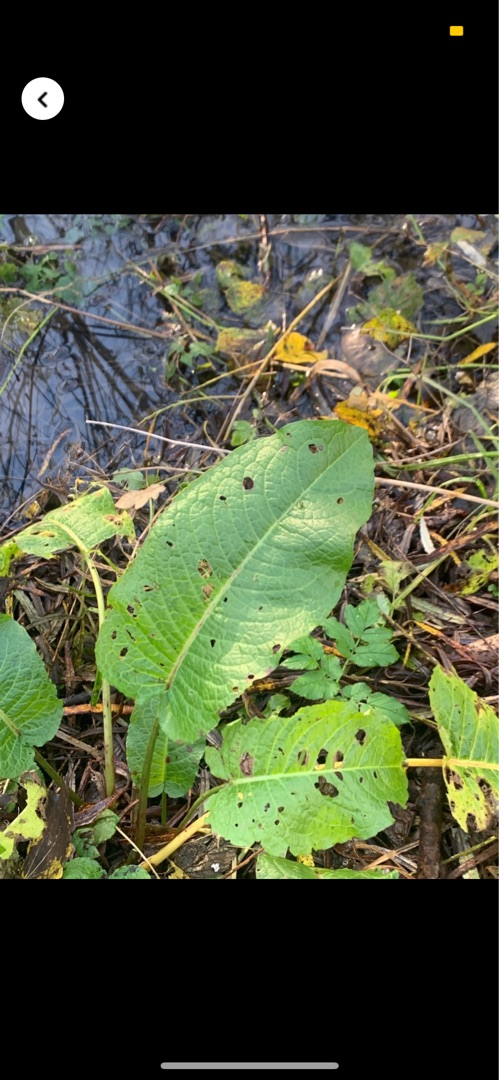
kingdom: Plantae
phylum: Tracheophyta
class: Magnoliopsida
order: Caryophyllales
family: Polygonaceae
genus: Rumex
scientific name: Rumex obtusifolius
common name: Butbladet skræppe
